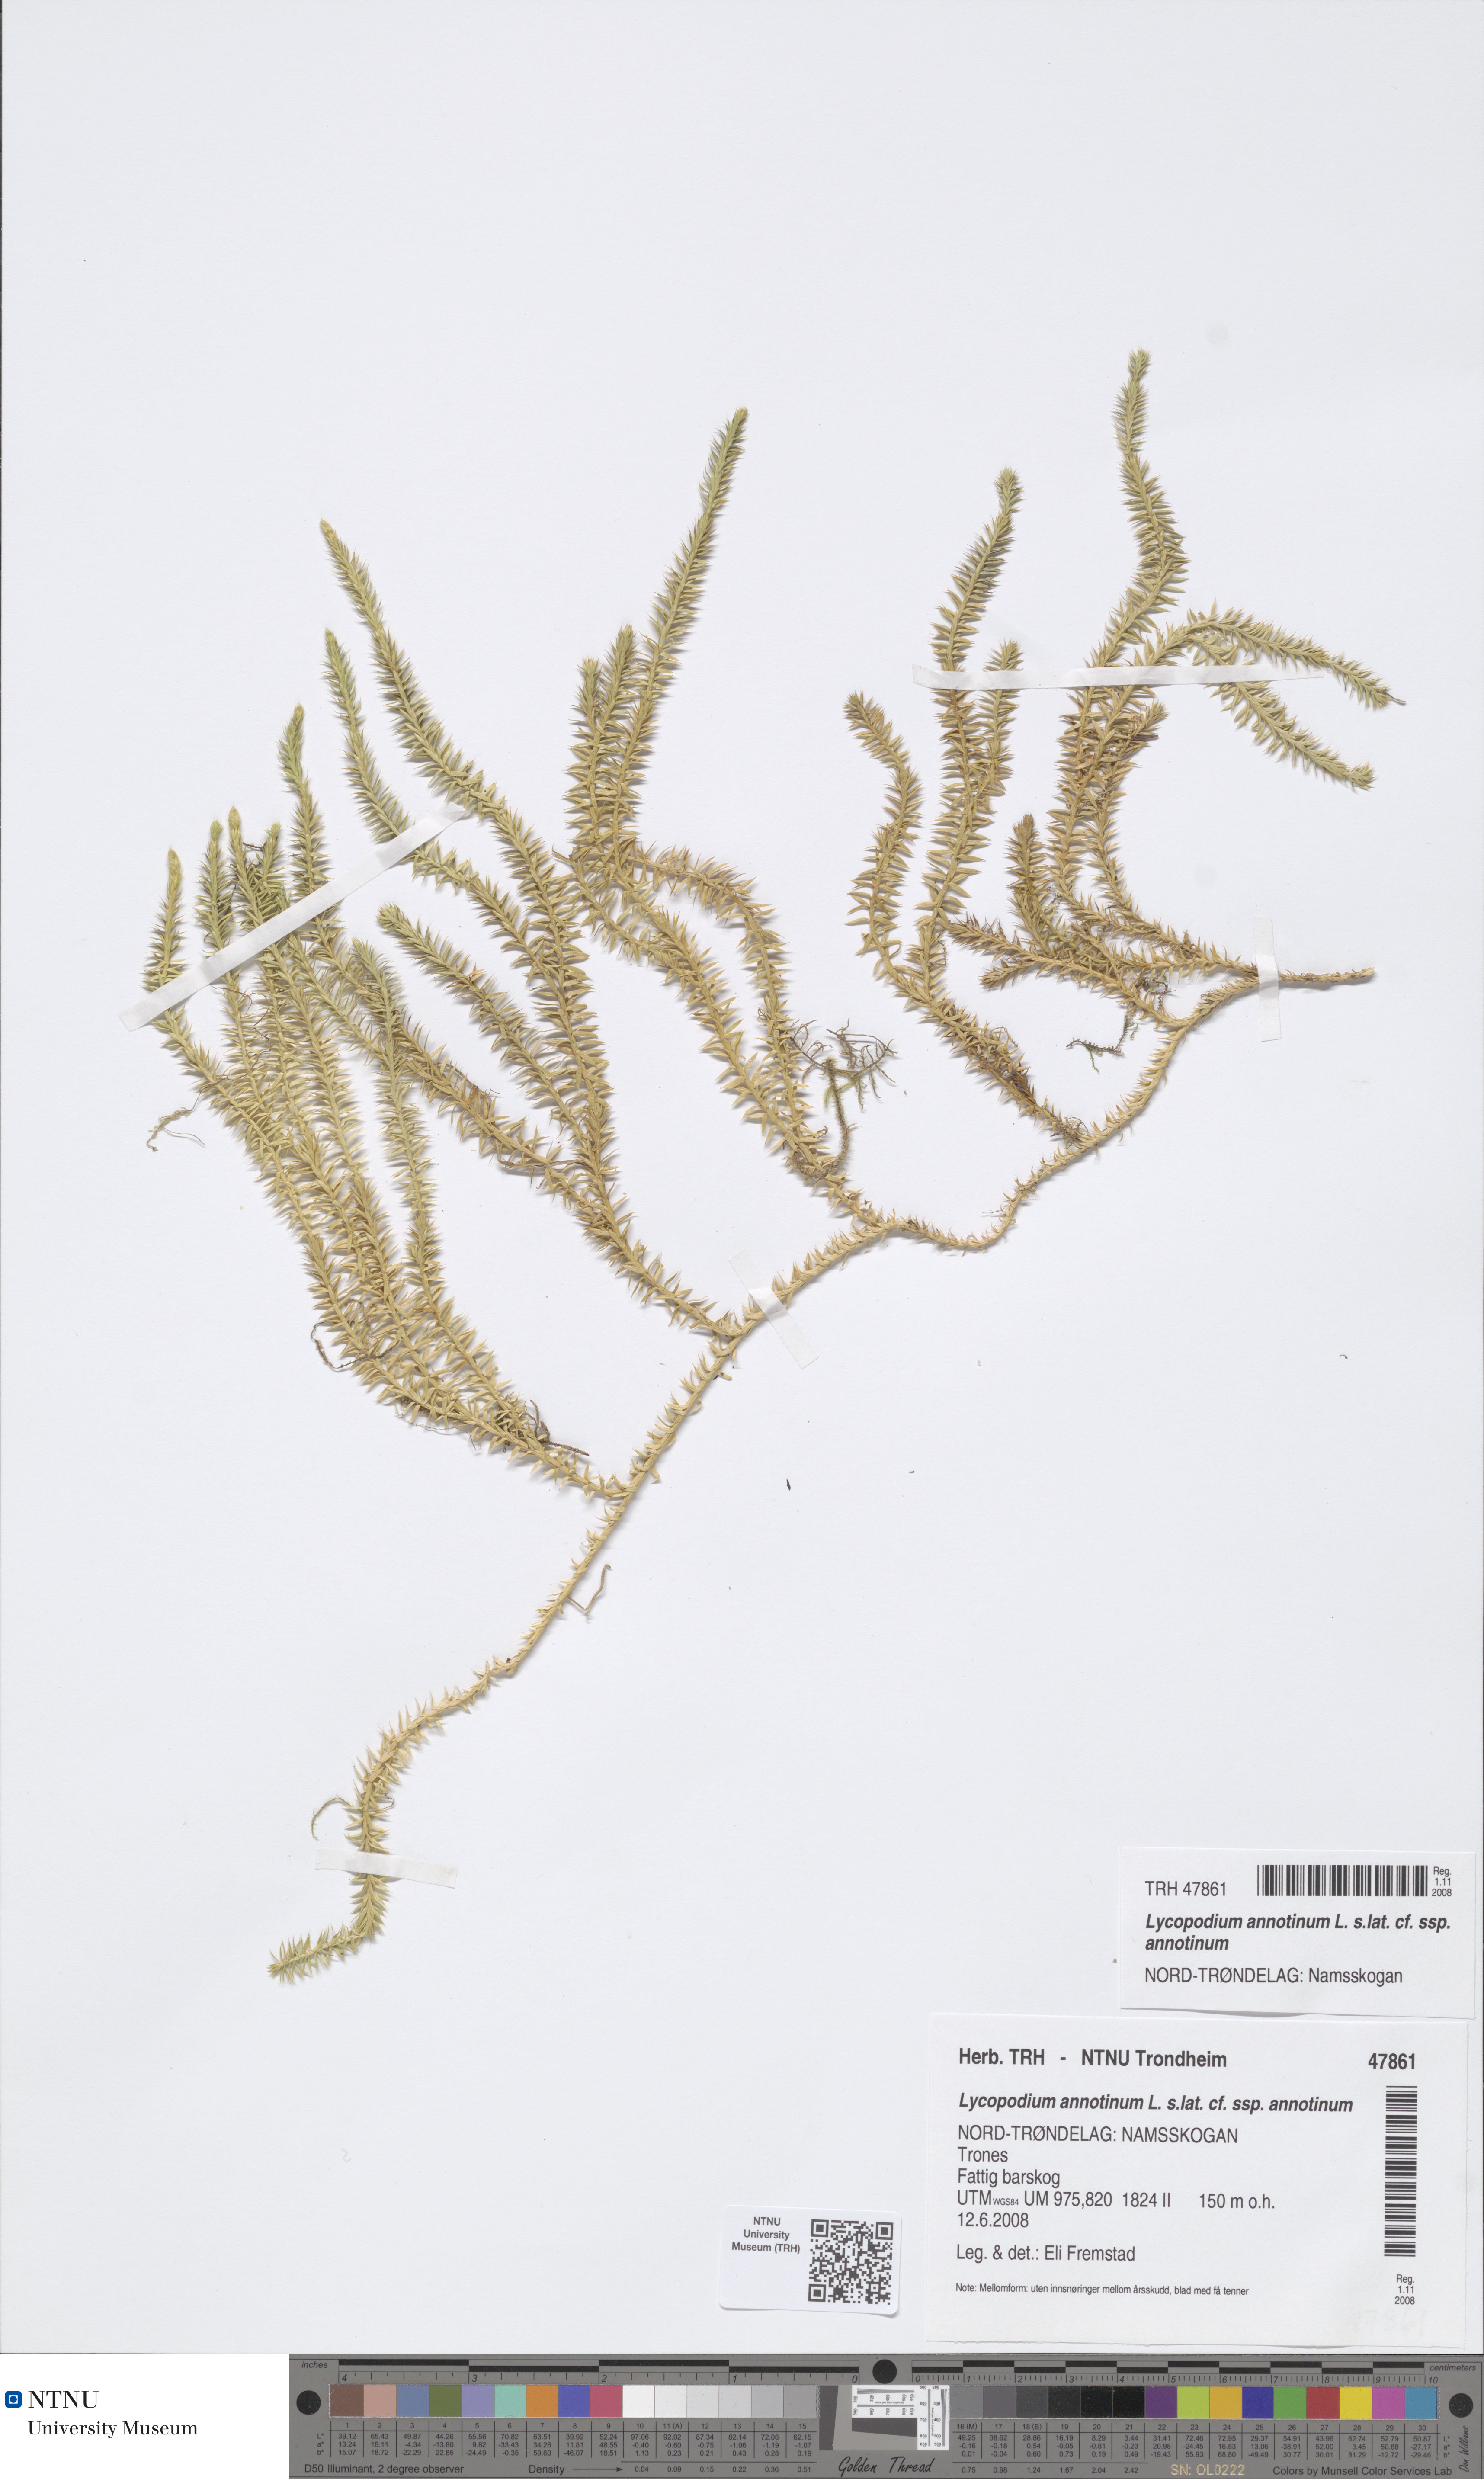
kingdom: Plantae
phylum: Tracheophyta
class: Lycopodiopsida
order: Lycopodiales
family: Lycopodiaceae
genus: Spinulum
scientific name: Spinulum annotinum
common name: Interrupted club-moss
